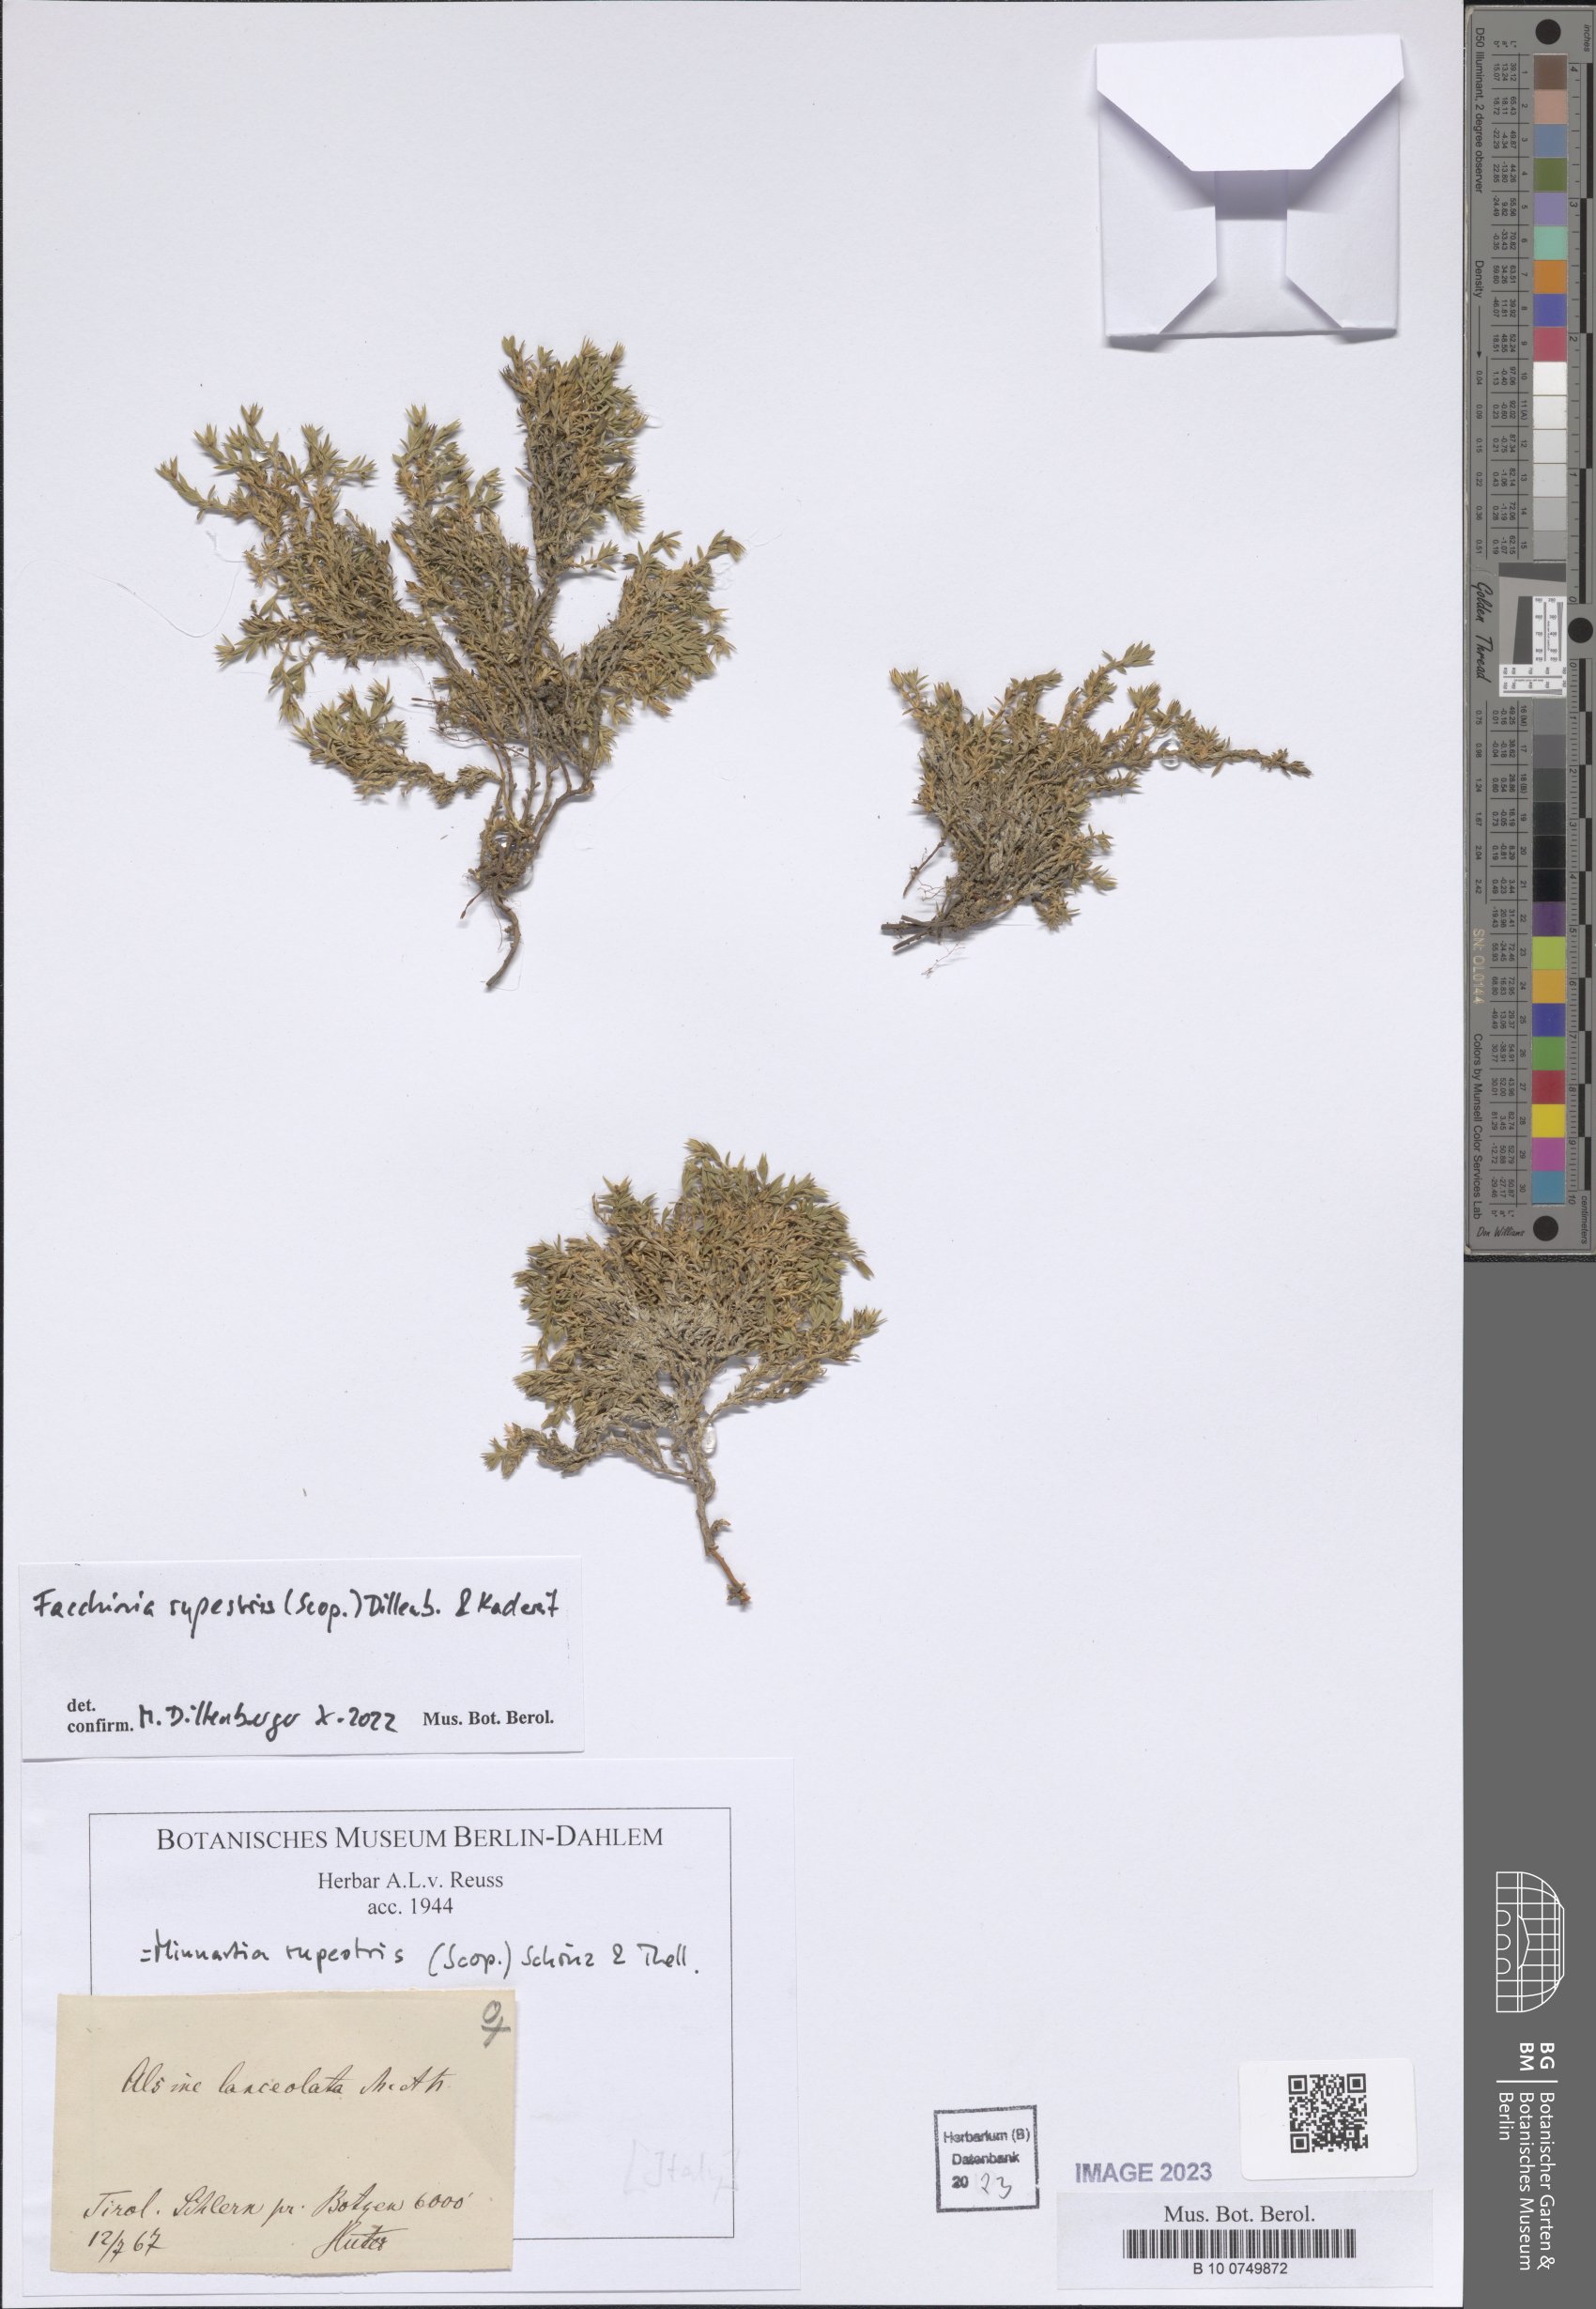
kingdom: Plantae
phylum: Tracheophyta
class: Magnoliopsida
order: Caryophyllales
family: Caryophyllaceae
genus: Facchinia
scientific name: Facchinia rupestris
